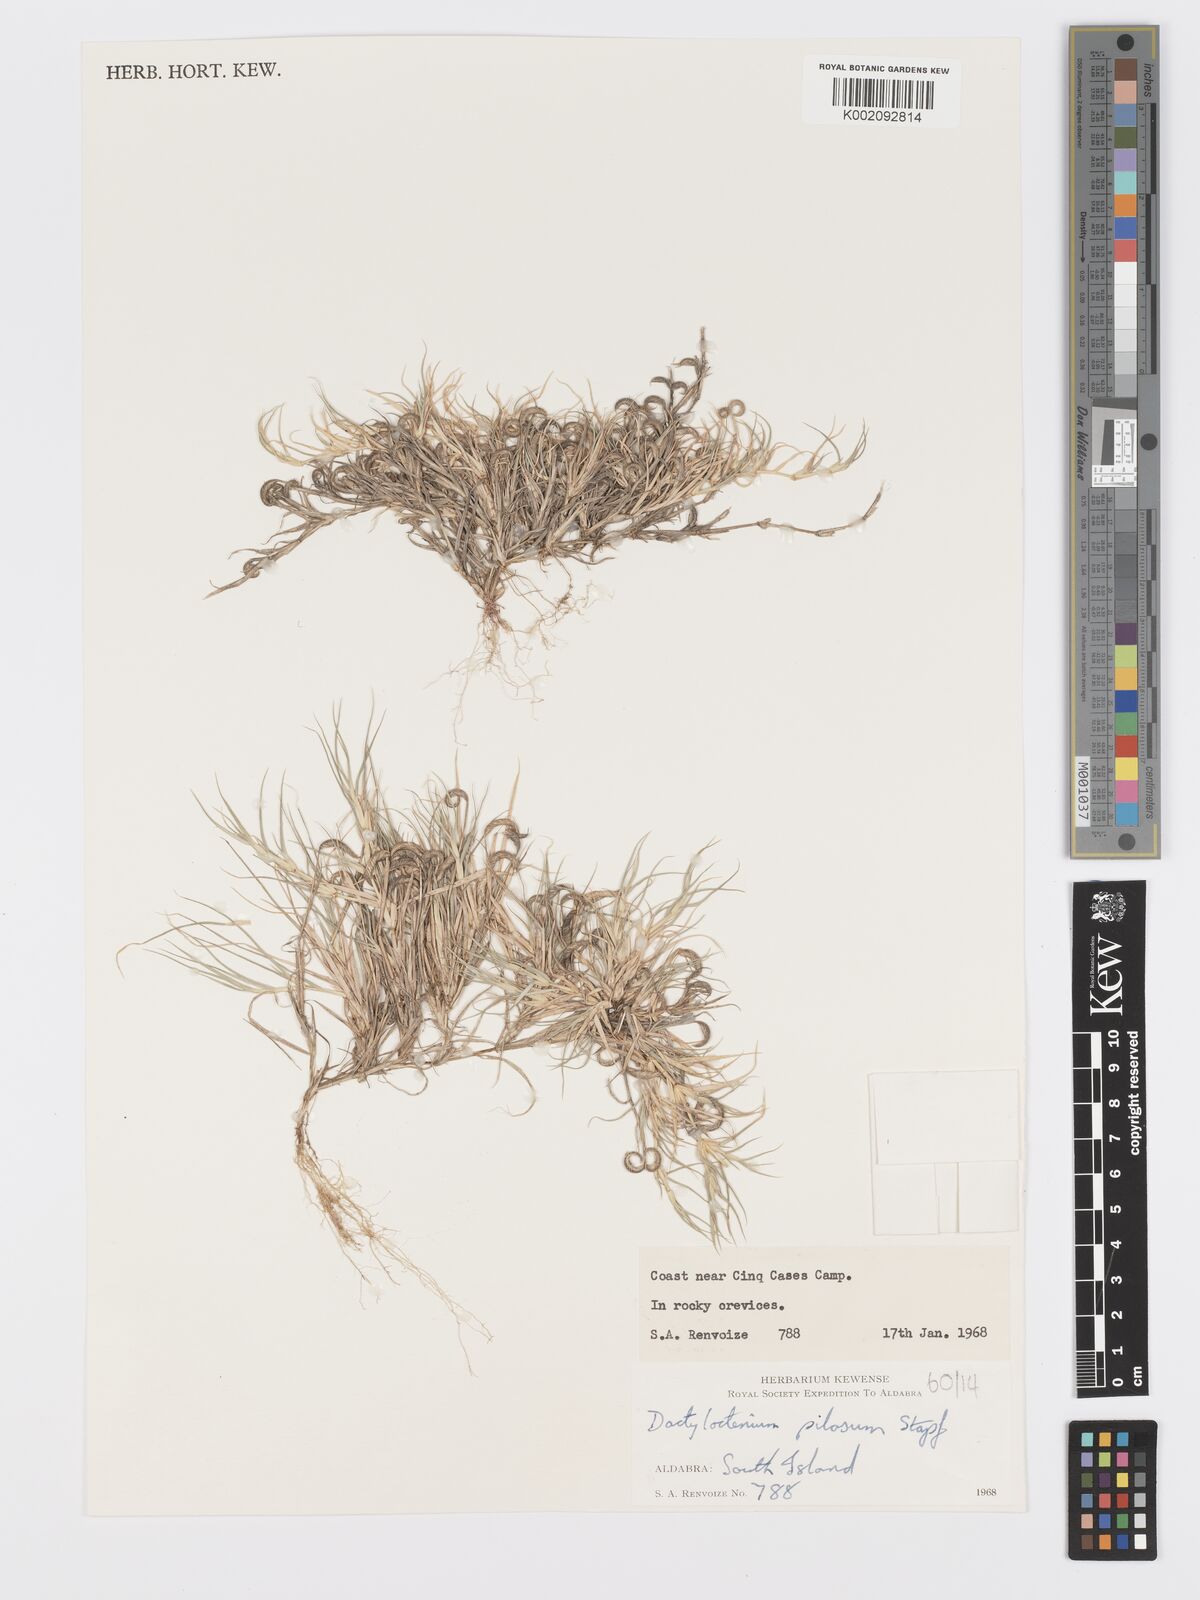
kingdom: Plantae
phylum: Tracheophyta
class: Liliopsida
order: Poales
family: Poaceae
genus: Dactyloctenium
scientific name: Dactyloctenium pilosum
